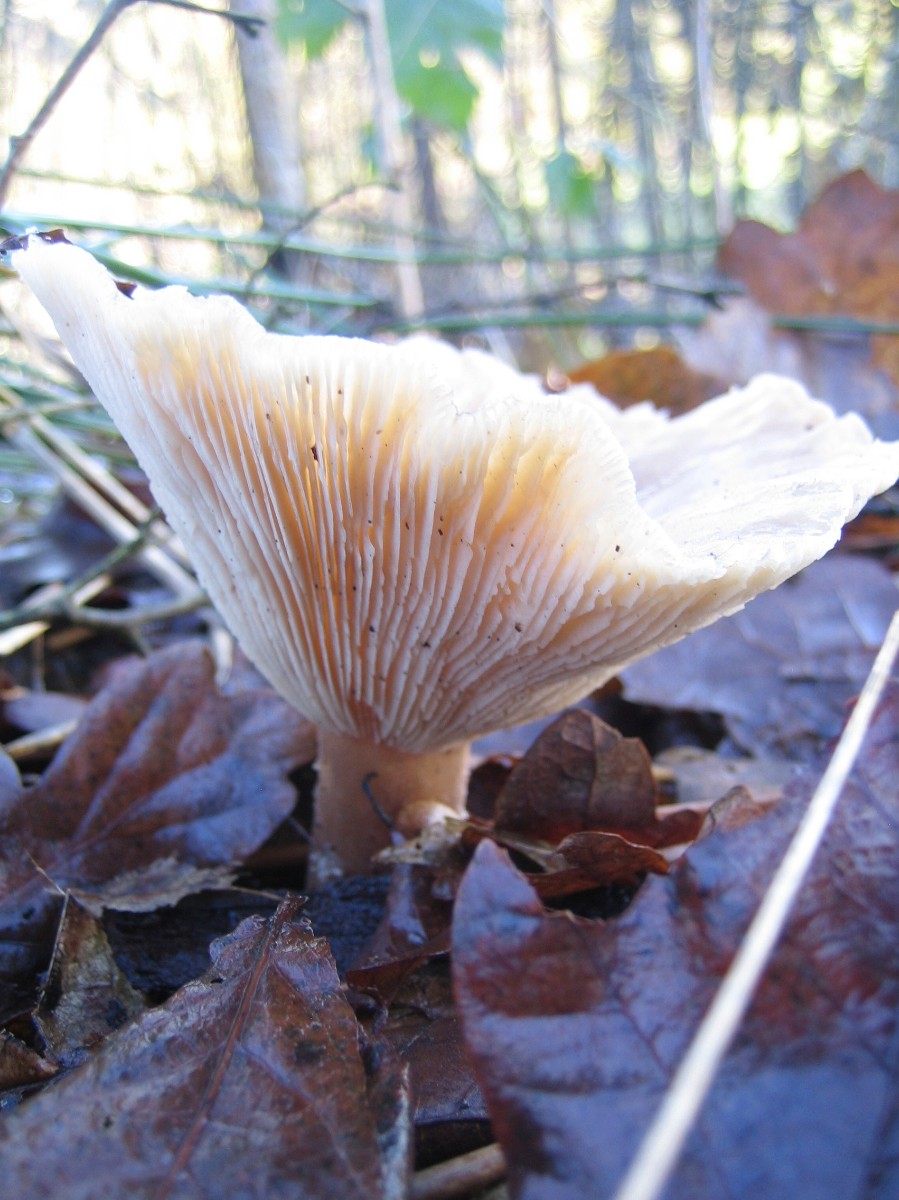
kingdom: Fungi
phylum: Basidiomycota
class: Agaricomycetes
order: Agaricales
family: Tricholomataceae
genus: Infundibulicybe
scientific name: Infundibulicybe geotropa
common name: stor tragthat
